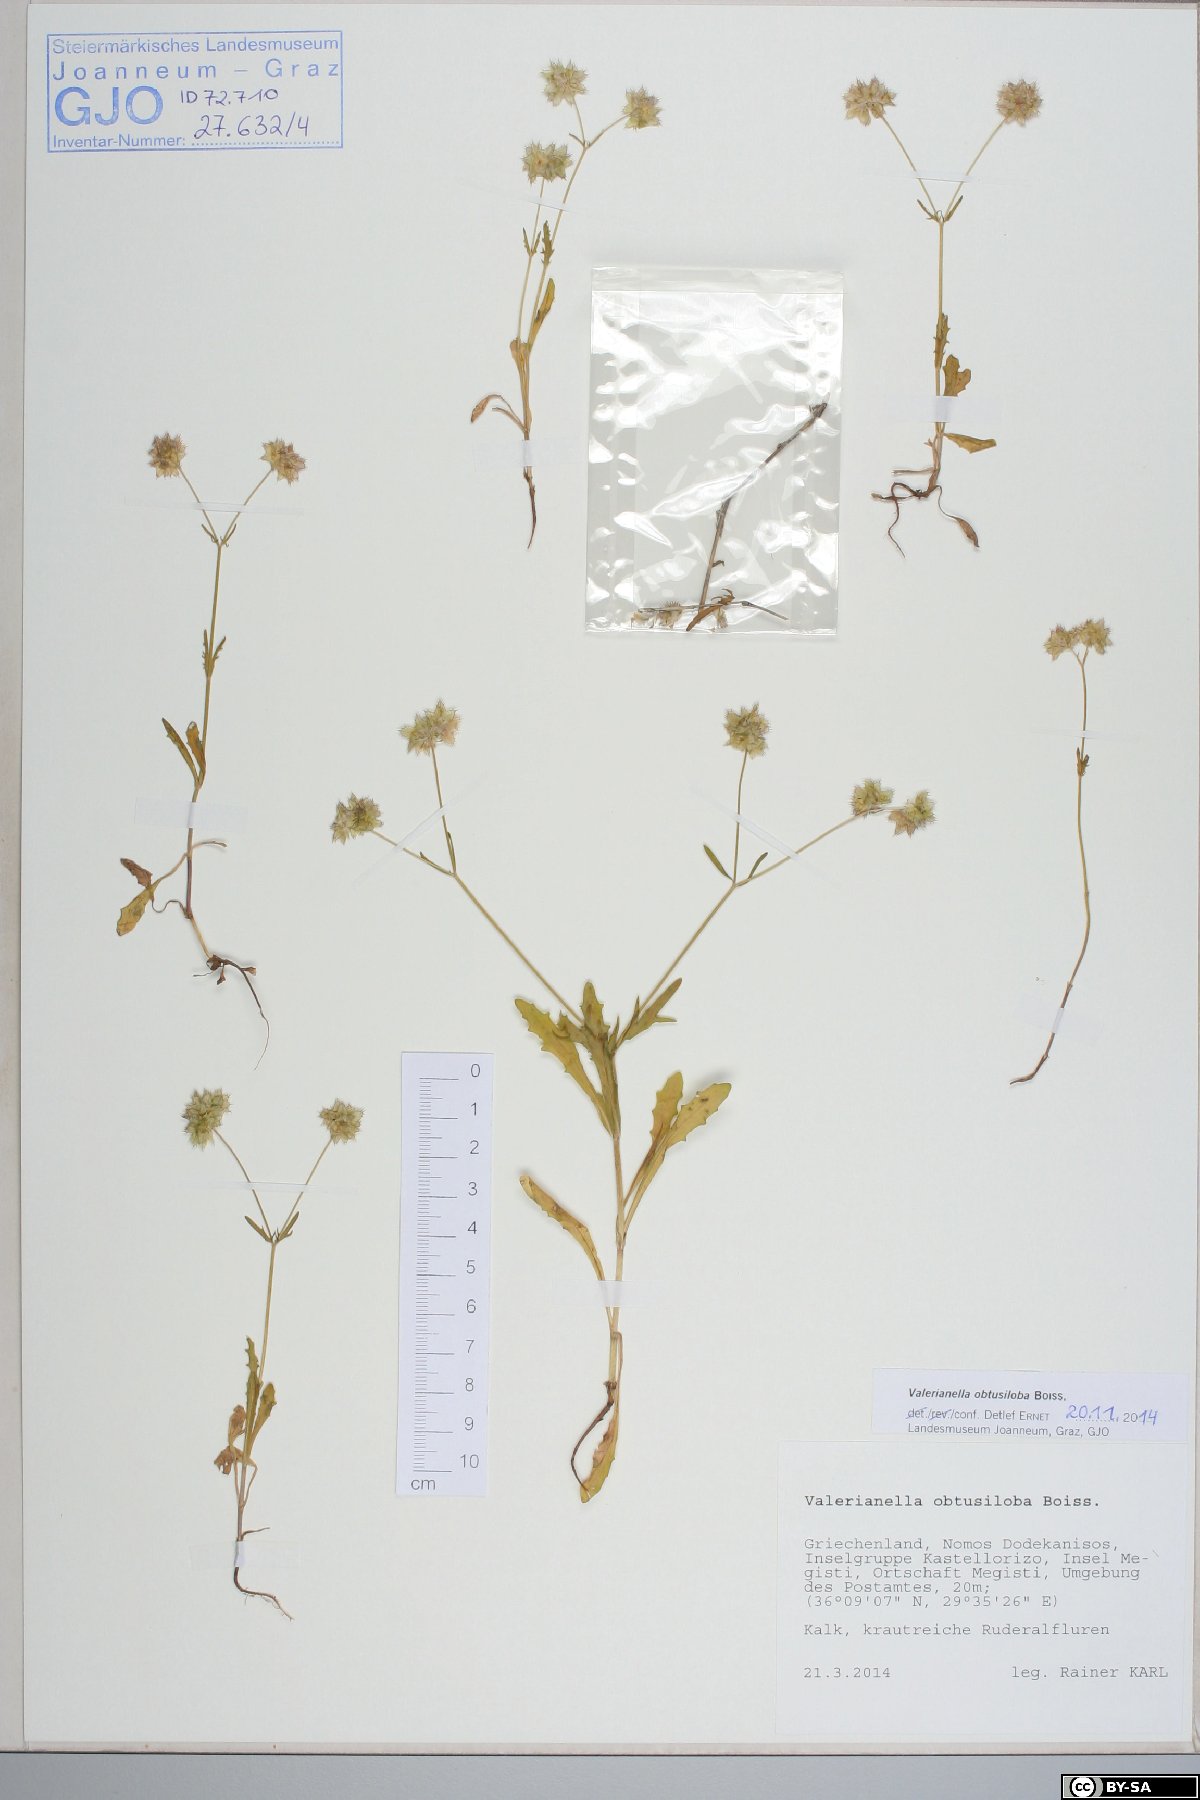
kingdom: Plantae
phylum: Tracheophyta
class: Magnoliopsida
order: Dipsacales
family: Caprifoliaceae
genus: Valerianella
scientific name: Valerianella obtusiloba
